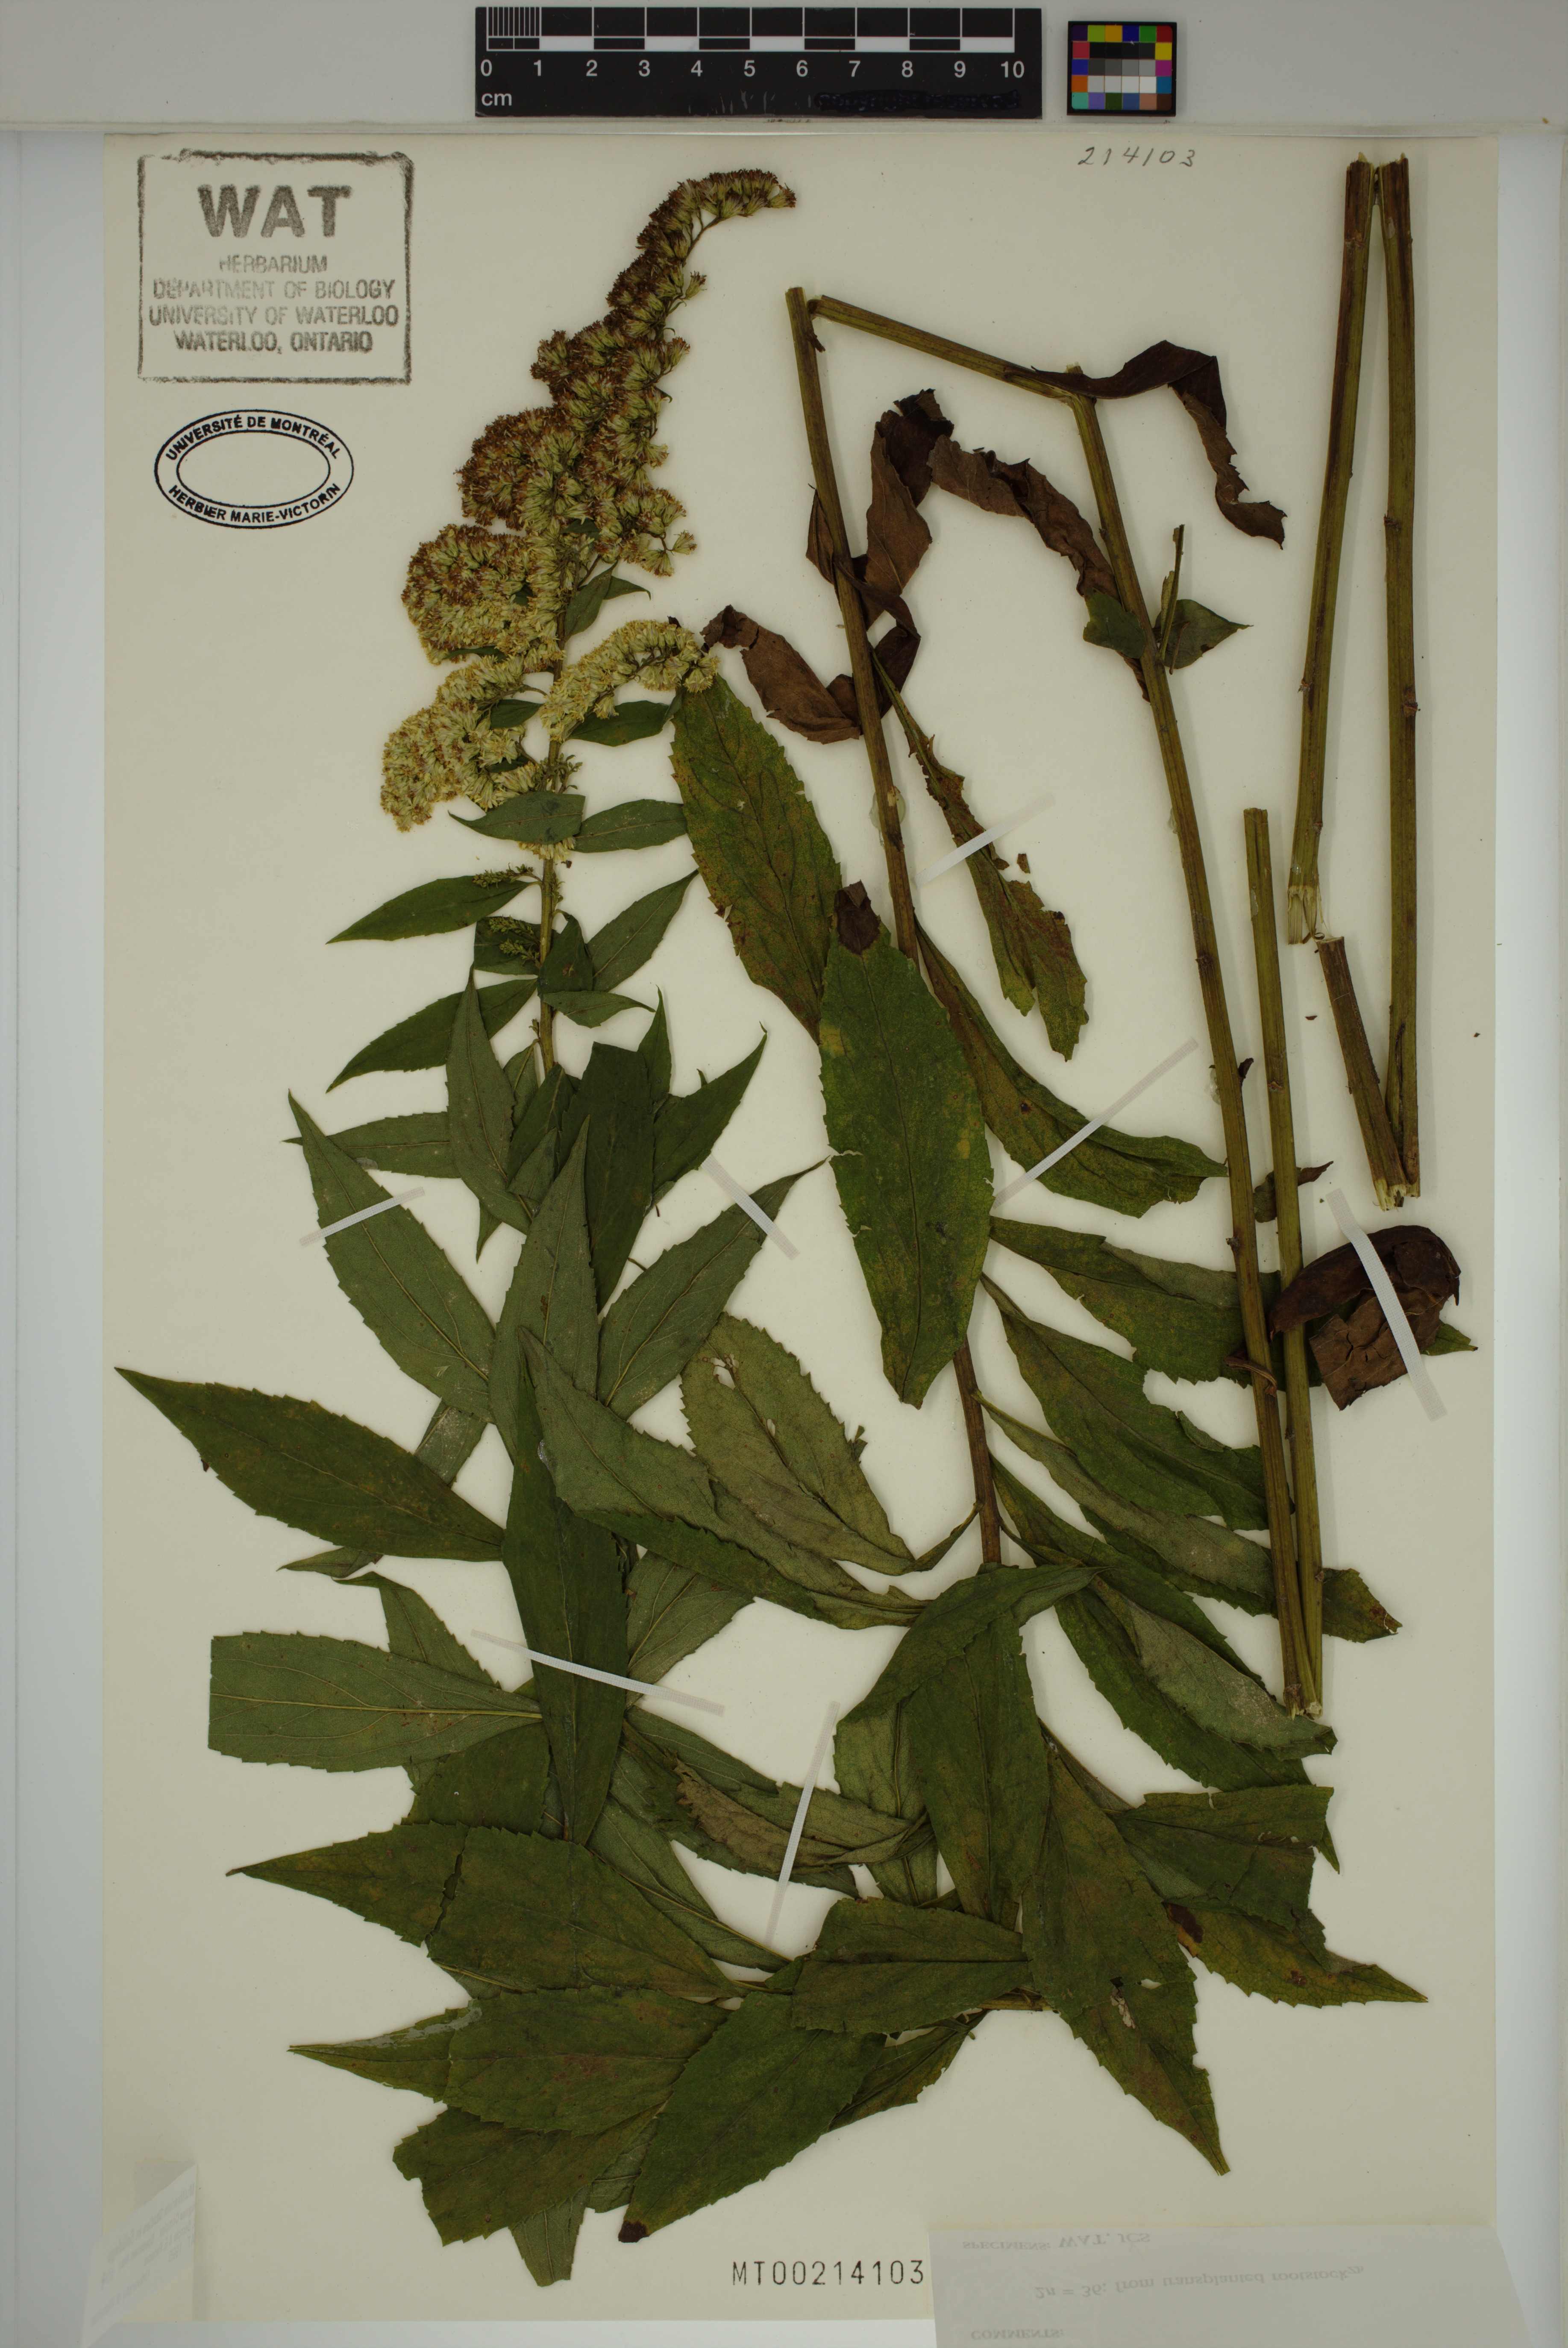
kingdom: Plantae
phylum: Tracheophyta
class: Magnoliopsida
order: Asterales
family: Asteraceae
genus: Solidago
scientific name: Solidago rugosa
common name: Rough-stemmed goldenrod
